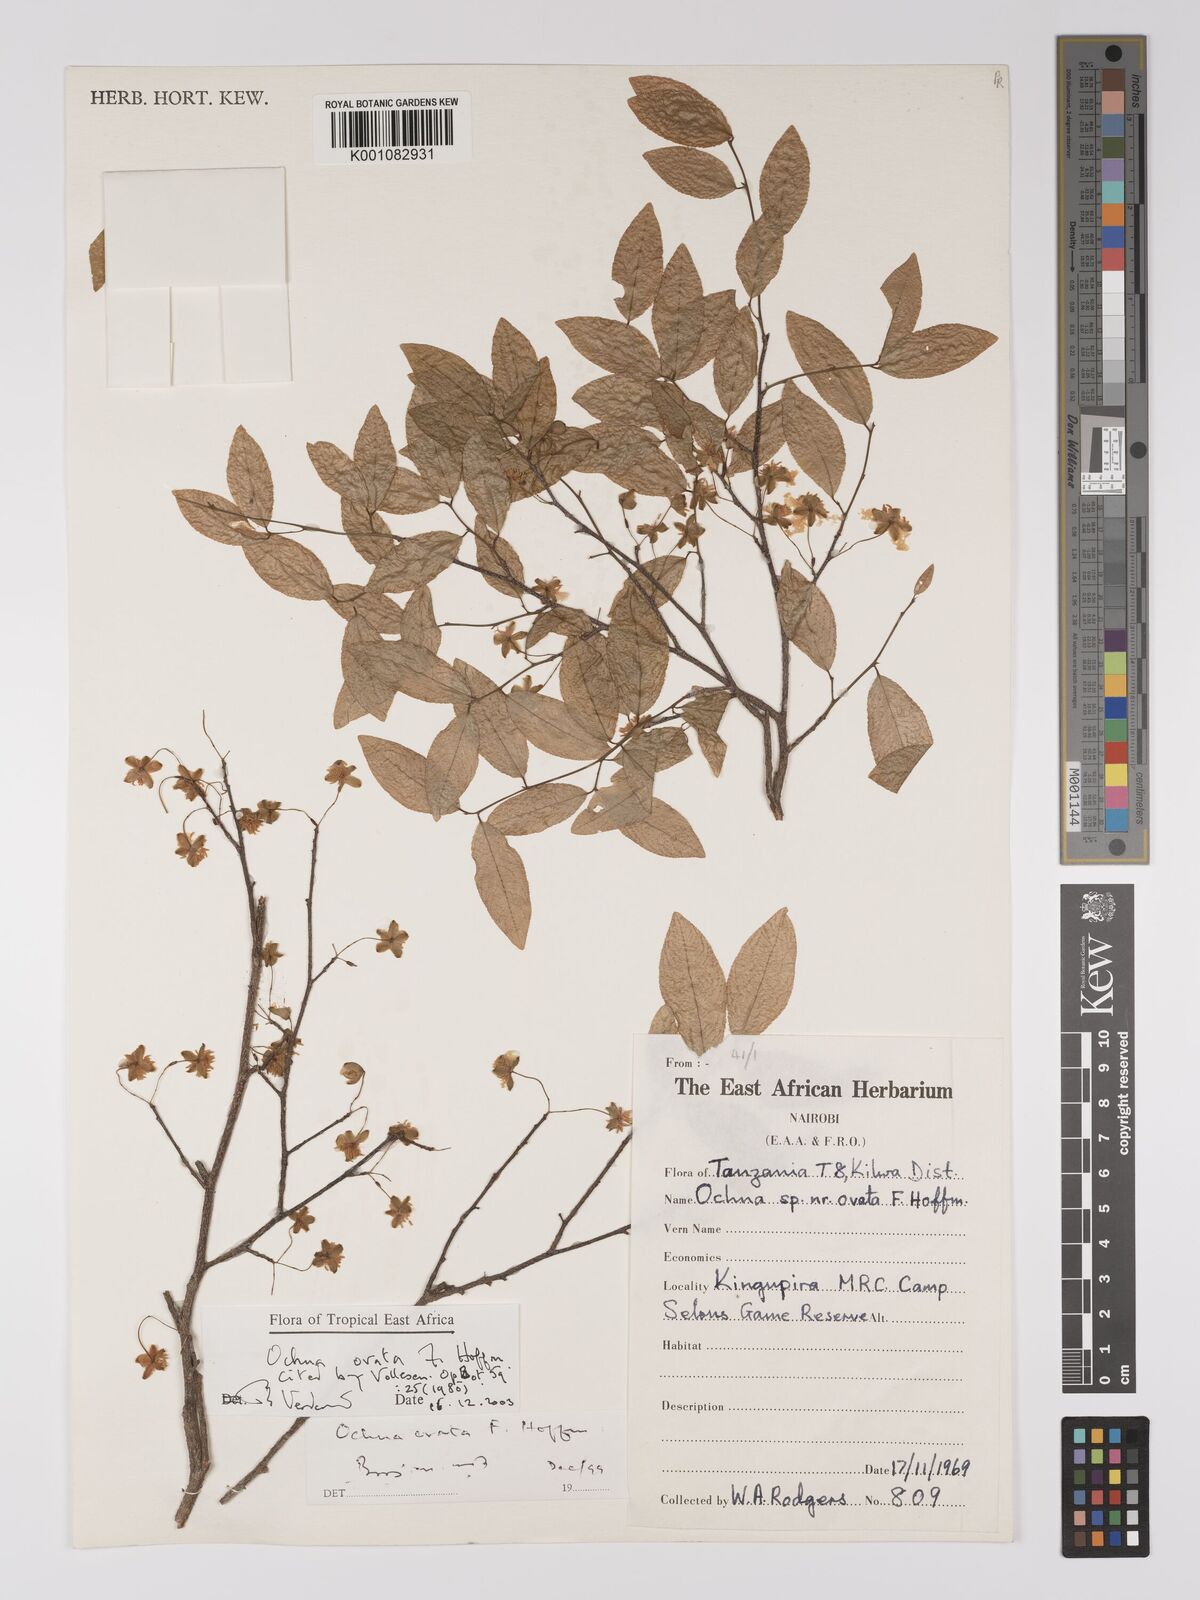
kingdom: Plantae
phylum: Tracheophyta
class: Magnoliopsida
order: Malpighiales
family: Ochnaceae
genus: Ochna
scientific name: Ochna ovata
